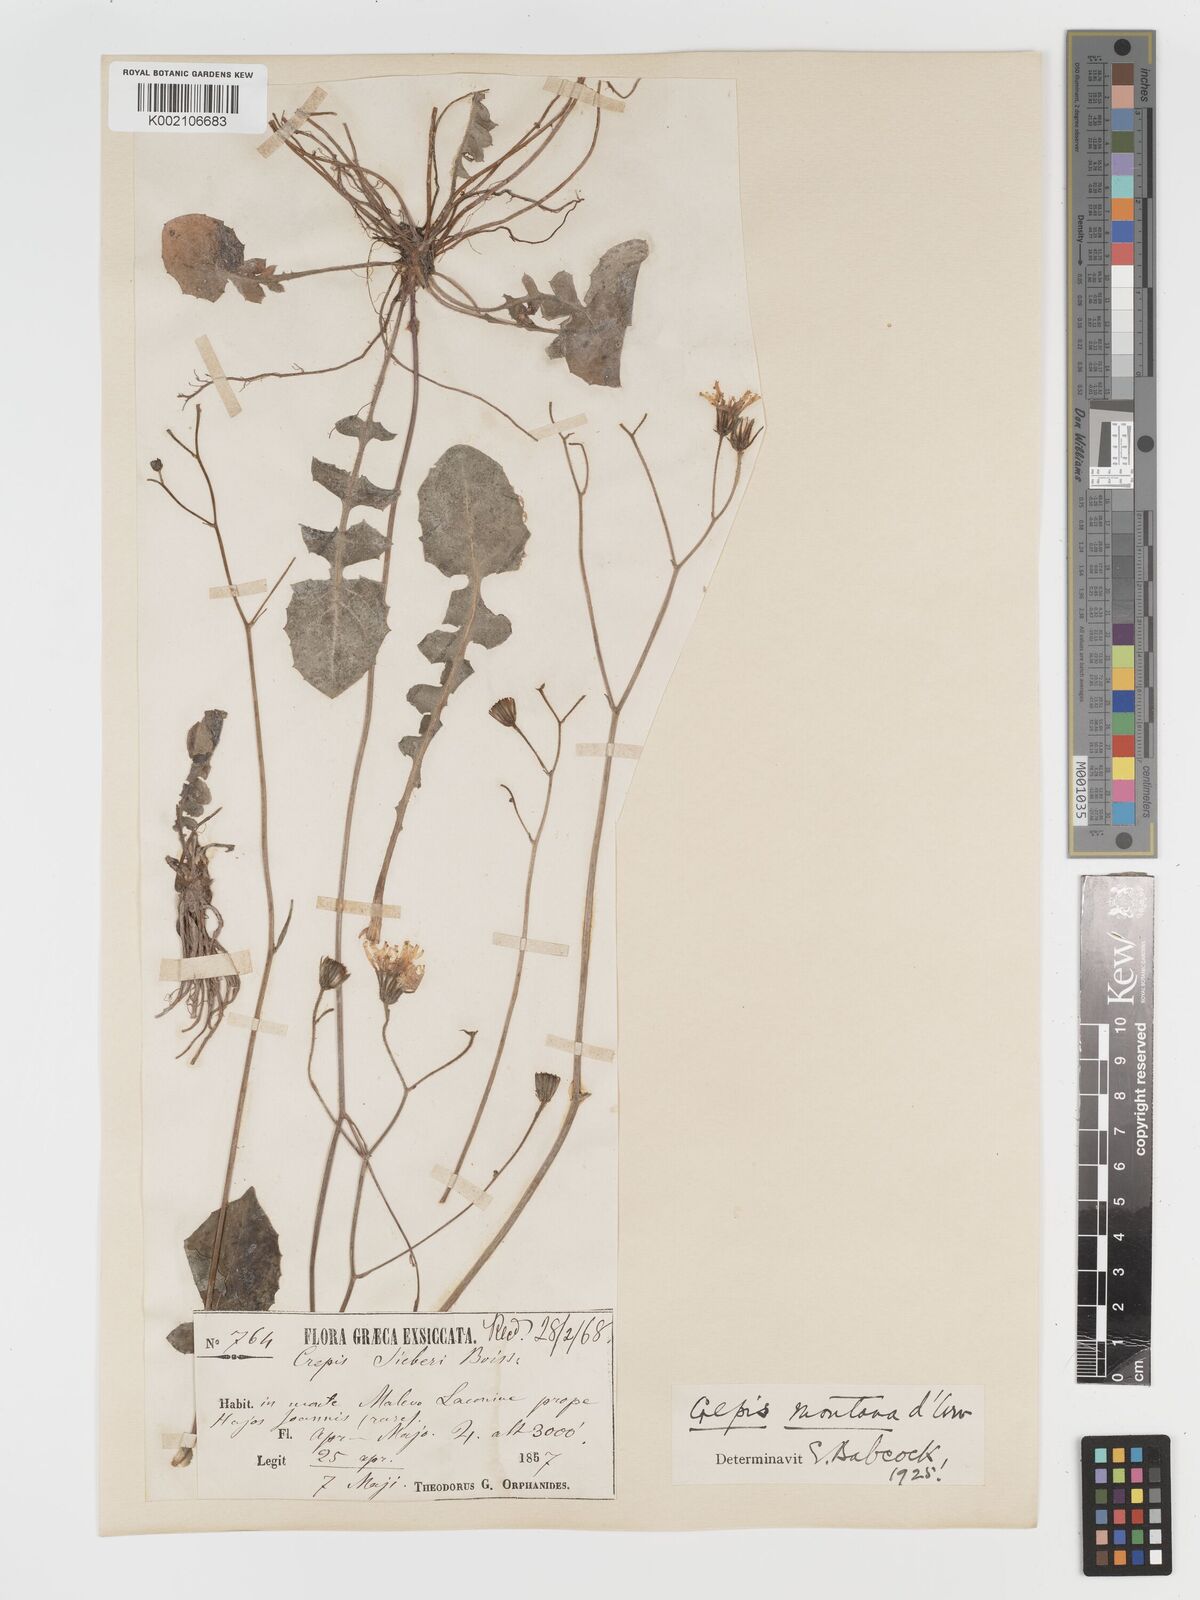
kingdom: Plantae
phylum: Tracheophyta
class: Magnoliopsida
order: Asterales
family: Asteraceae
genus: Crepis
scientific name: Crepis
